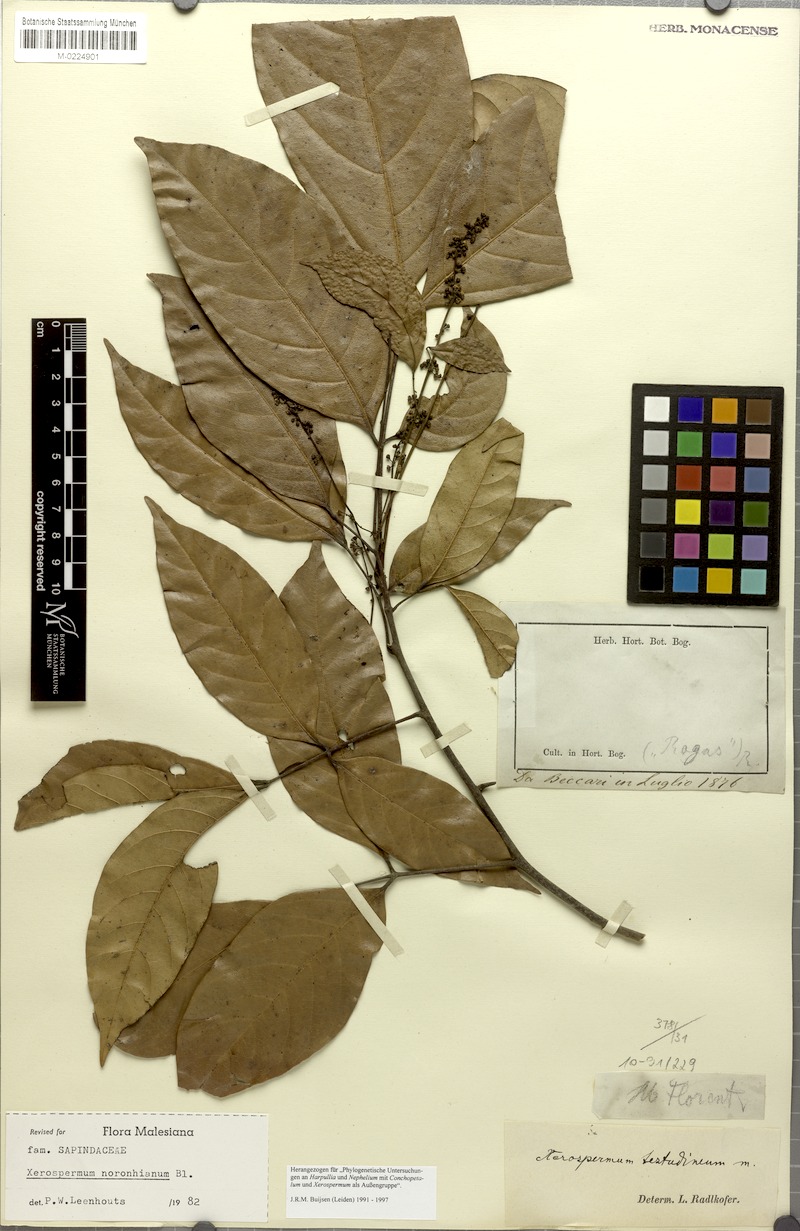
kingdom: Plantae
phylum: Tracheophyta
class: Magnoliopsida
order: Sapindales
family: Sapindaceae
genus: Xerospermum
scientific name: Xerospermum noronhianum
